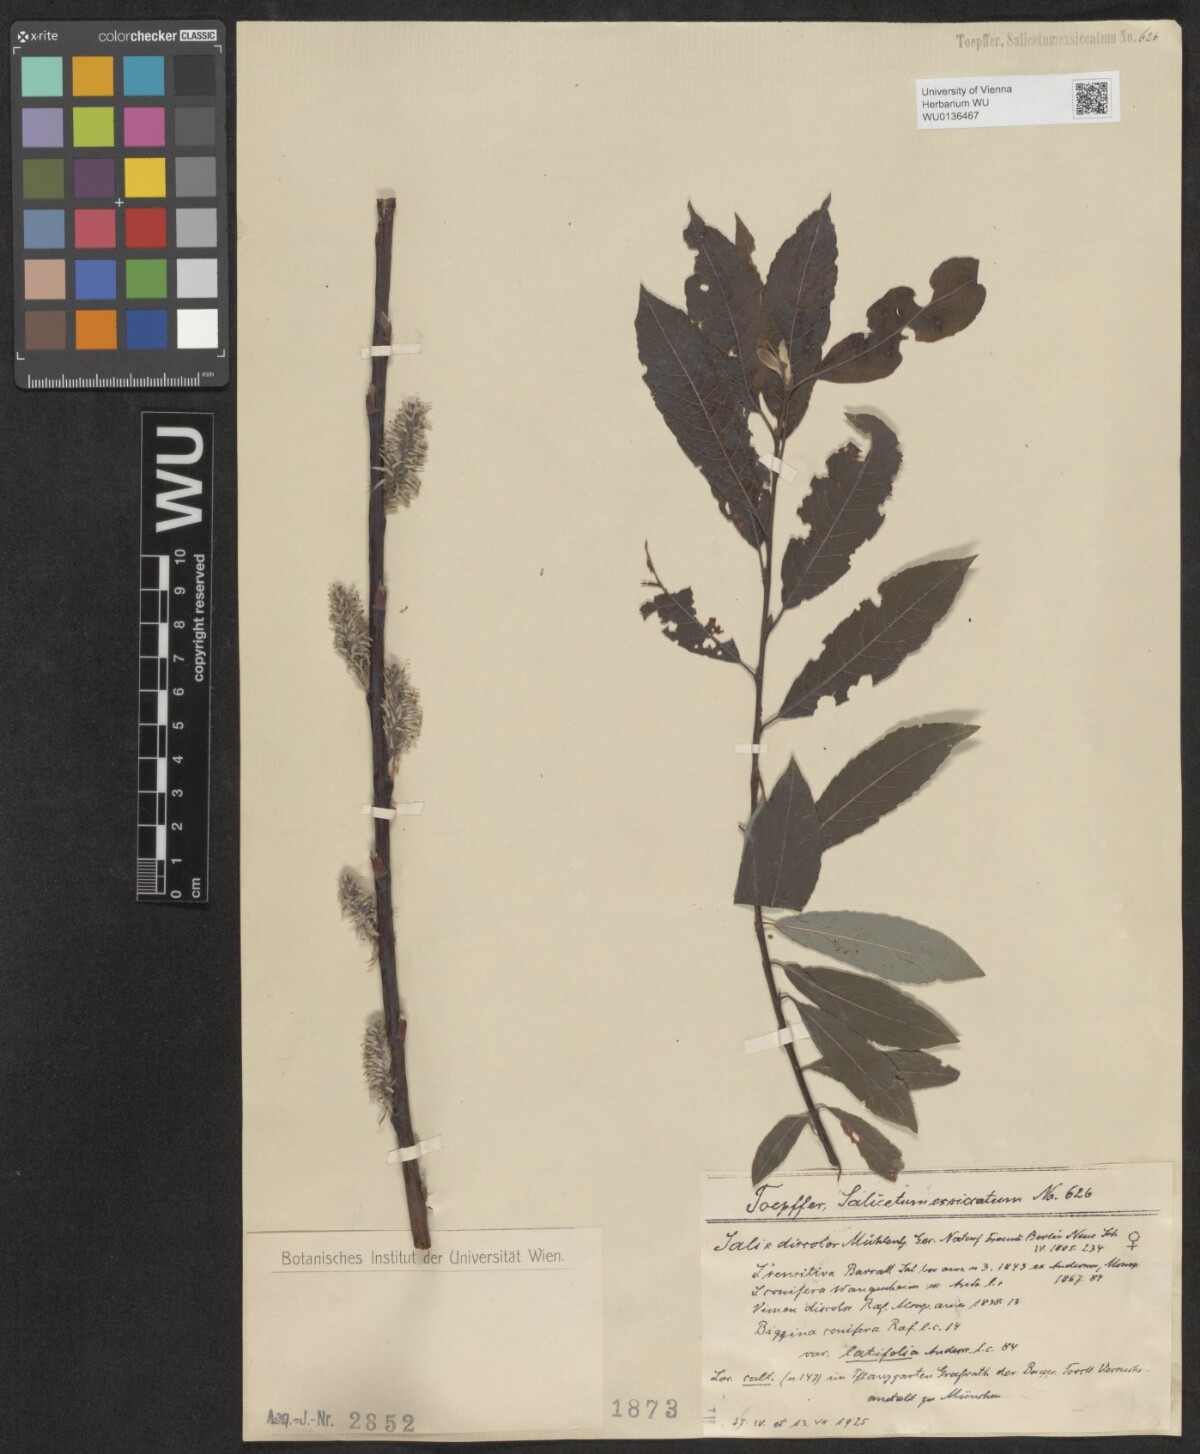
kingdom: Plantae
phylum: Tracheophyta
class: Magnoliopsida
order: Malpighiales
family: Salicaceae
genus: Salix
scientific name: Salix discolor
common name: Glaucous willow
